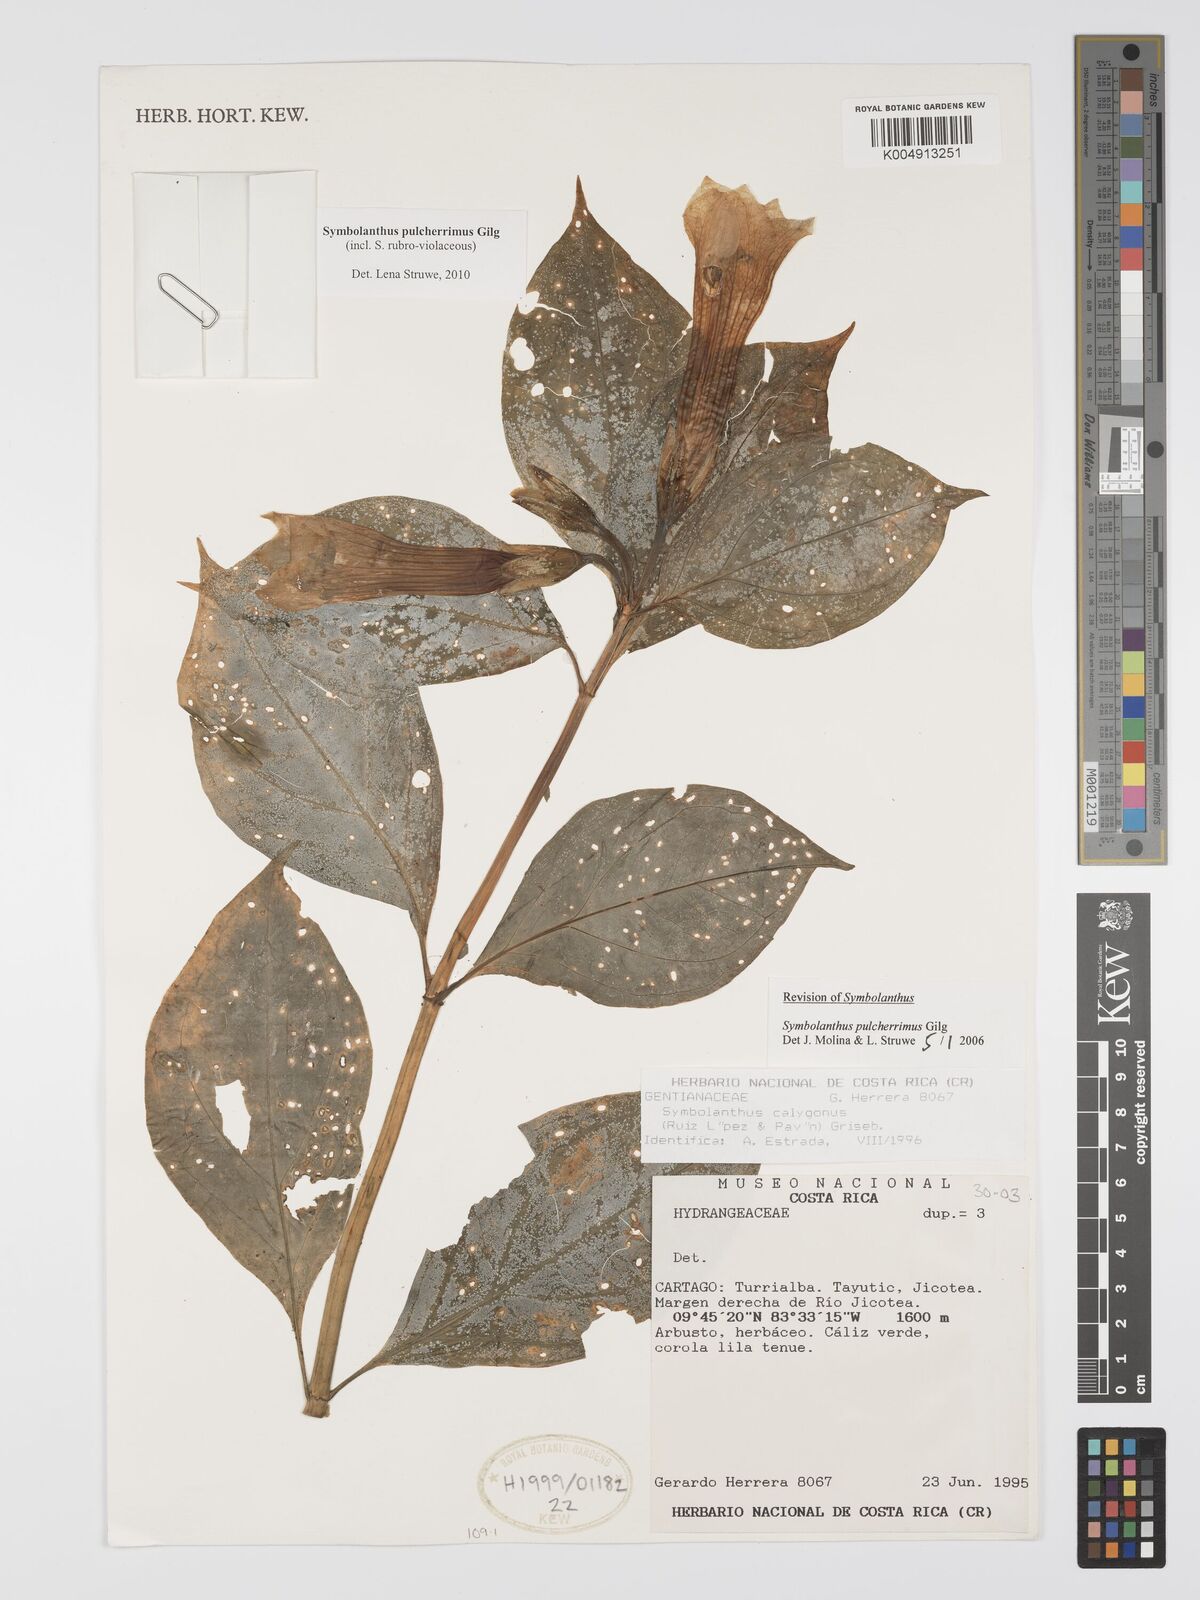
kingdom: Plantae
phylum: Tracheophyta
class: Magnoliopsida
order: Gentianales
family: Gentianaceae
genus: Symbolanthus
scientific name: Symbolanthus pulcherrimus
